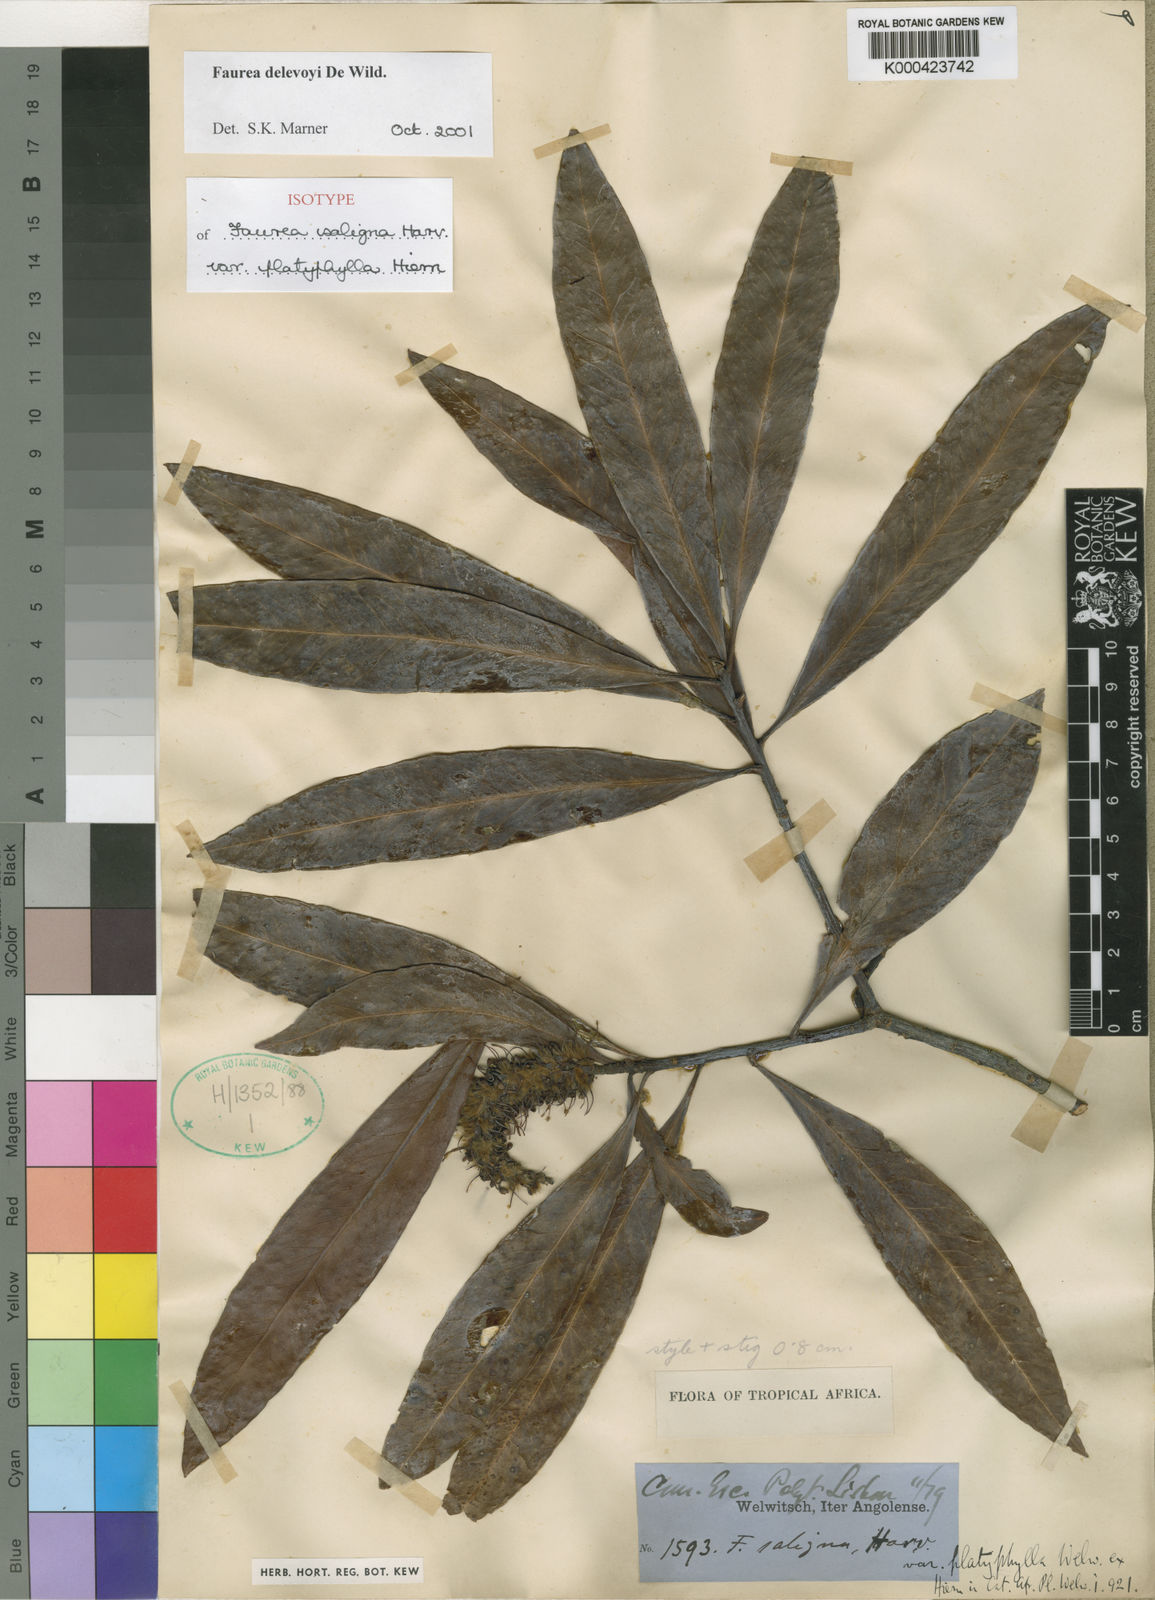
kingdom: Plantae
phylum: Tracheophyta
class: Magnoliopsida
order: Proteales
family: Proteaceae
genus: Faurea
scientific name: Faurea saligna
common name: African bean
